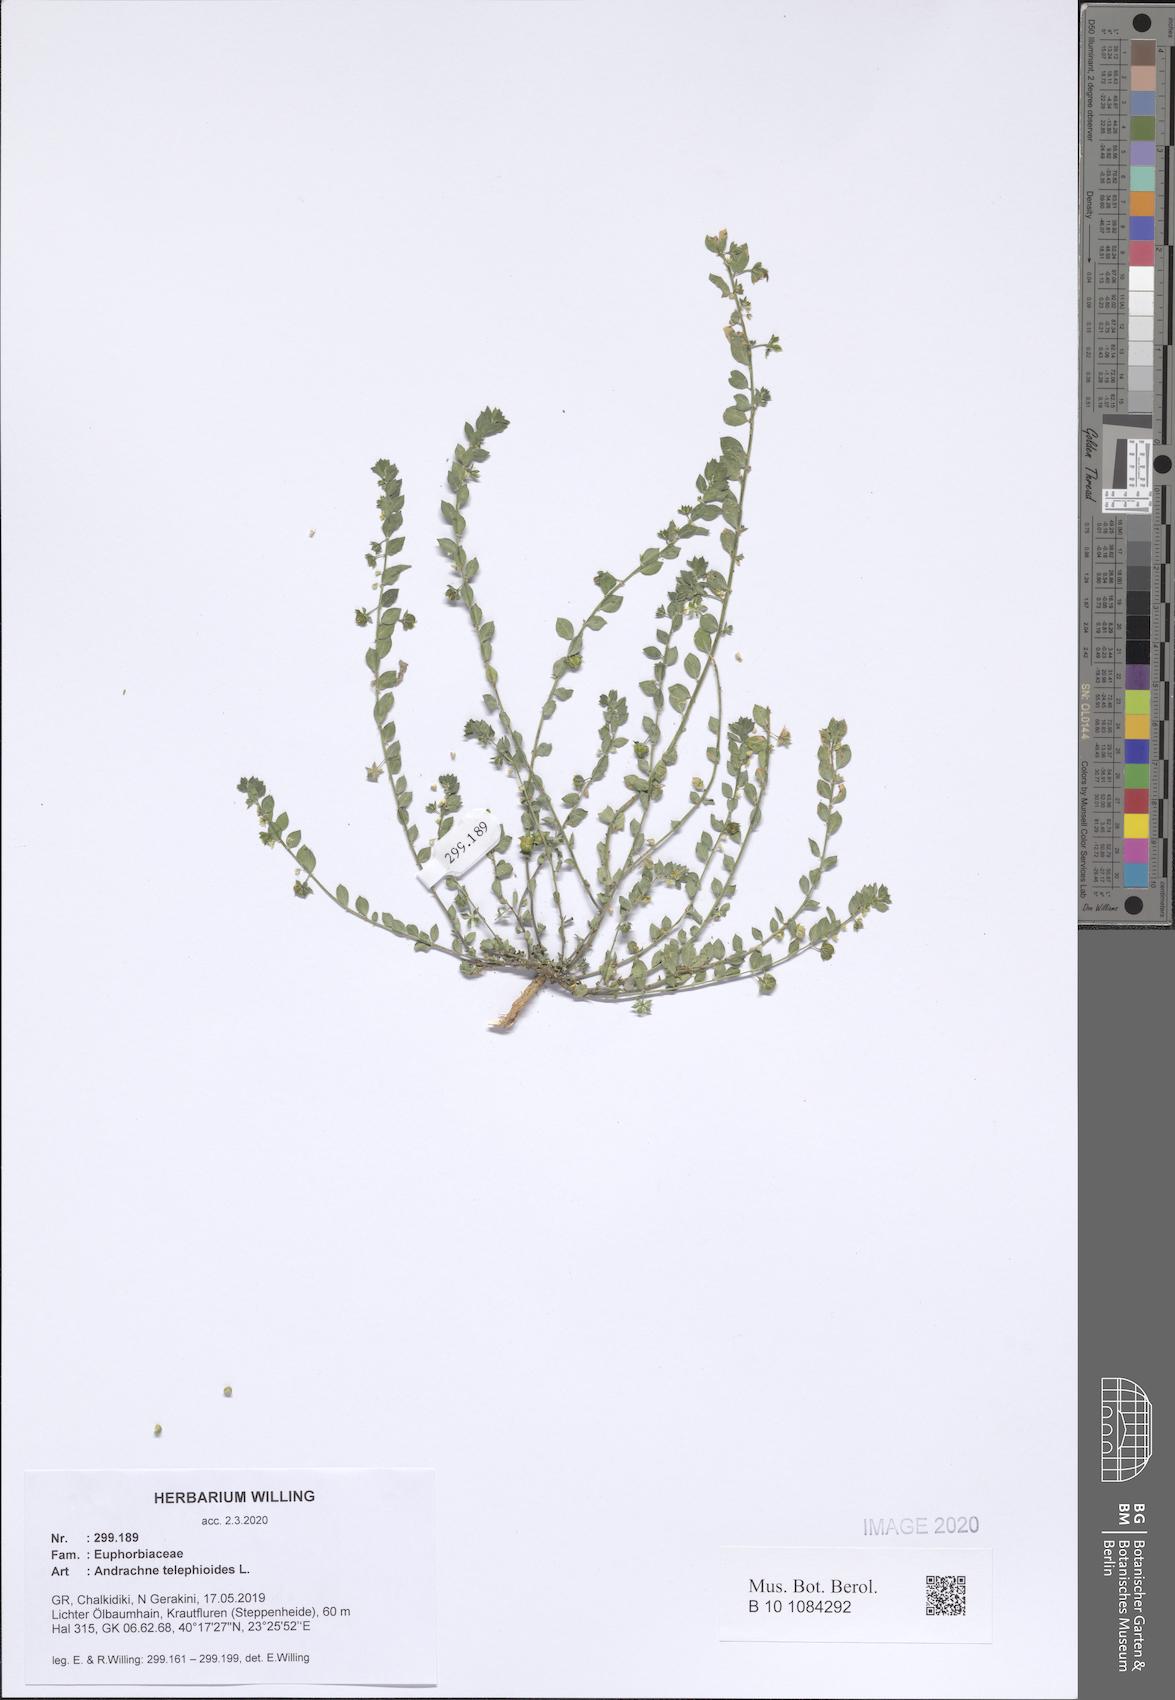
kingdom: Plantae
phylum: Tracheophyta
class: Magnoliopsida
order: Malpighiales
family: Phyllanthaceae
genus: Andrachne
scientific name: Andrachne telephioides
